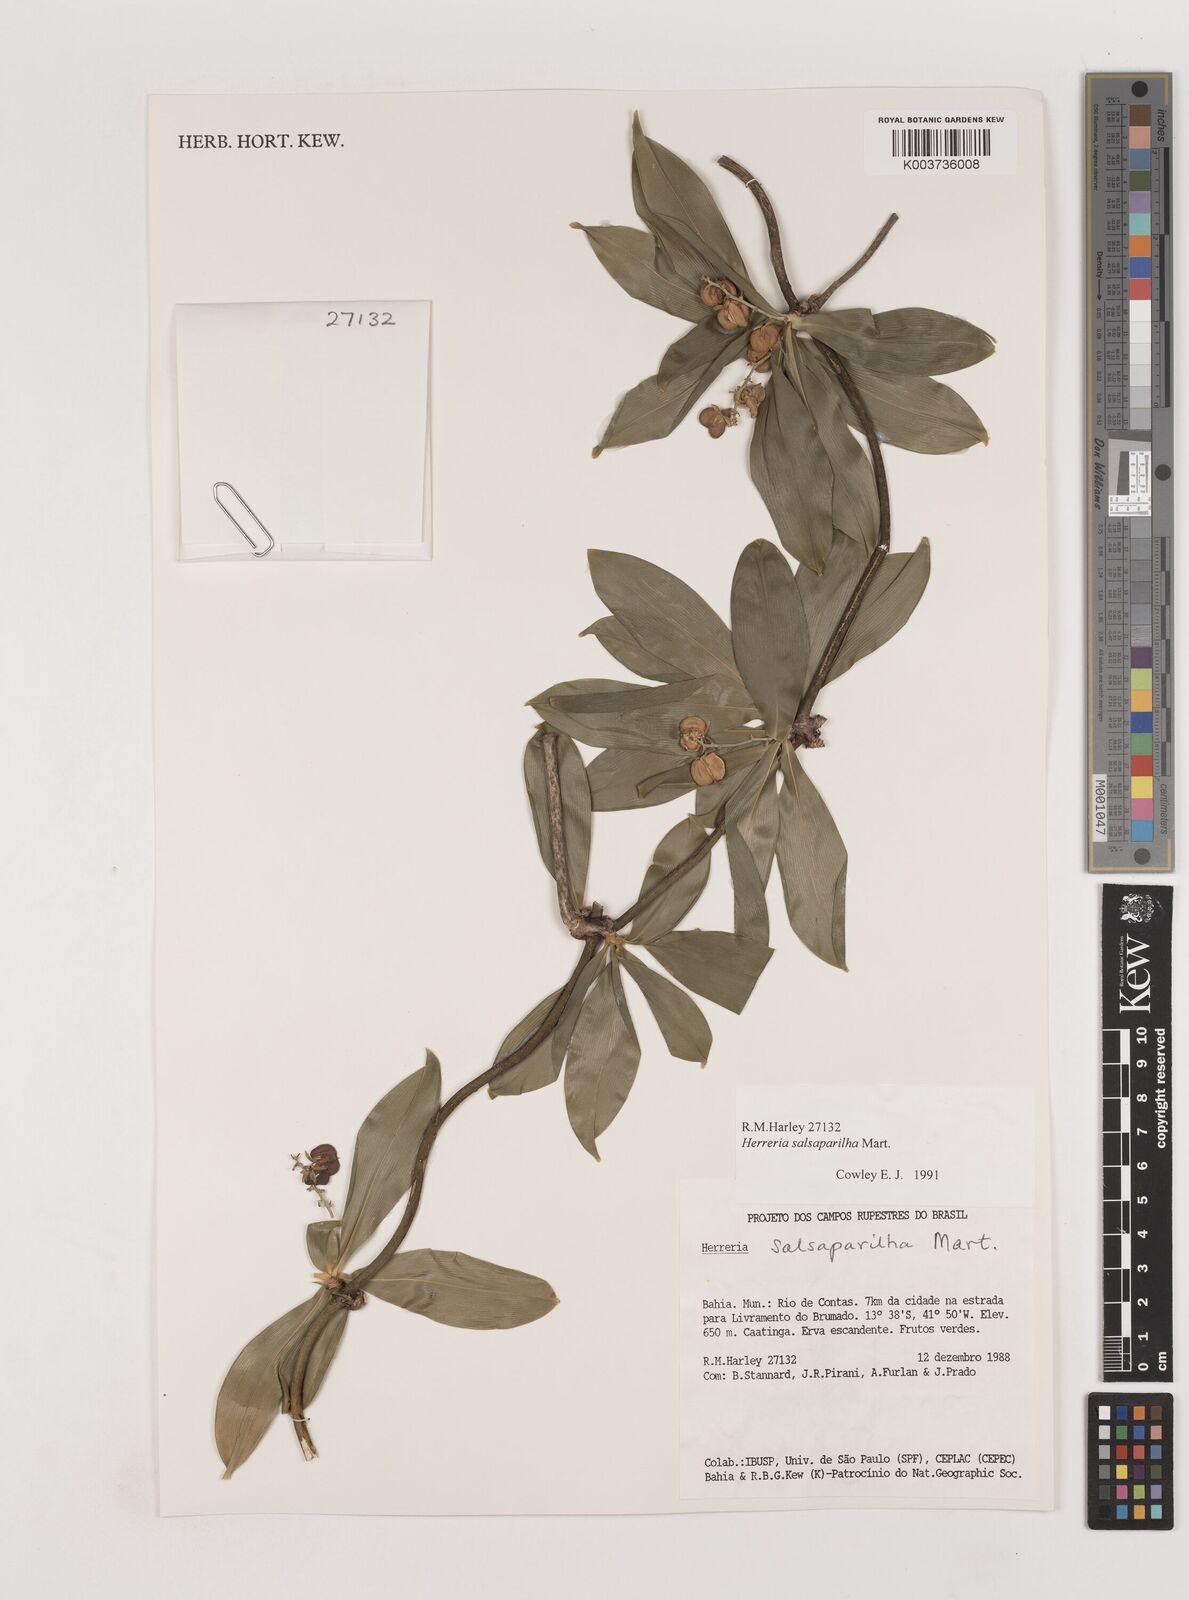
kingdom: Plantae
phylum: Tracheophyta
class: Liliopsida
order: Asparagales
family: Asparagaceae
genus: Herreria
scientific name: Herreria salsaparilha
